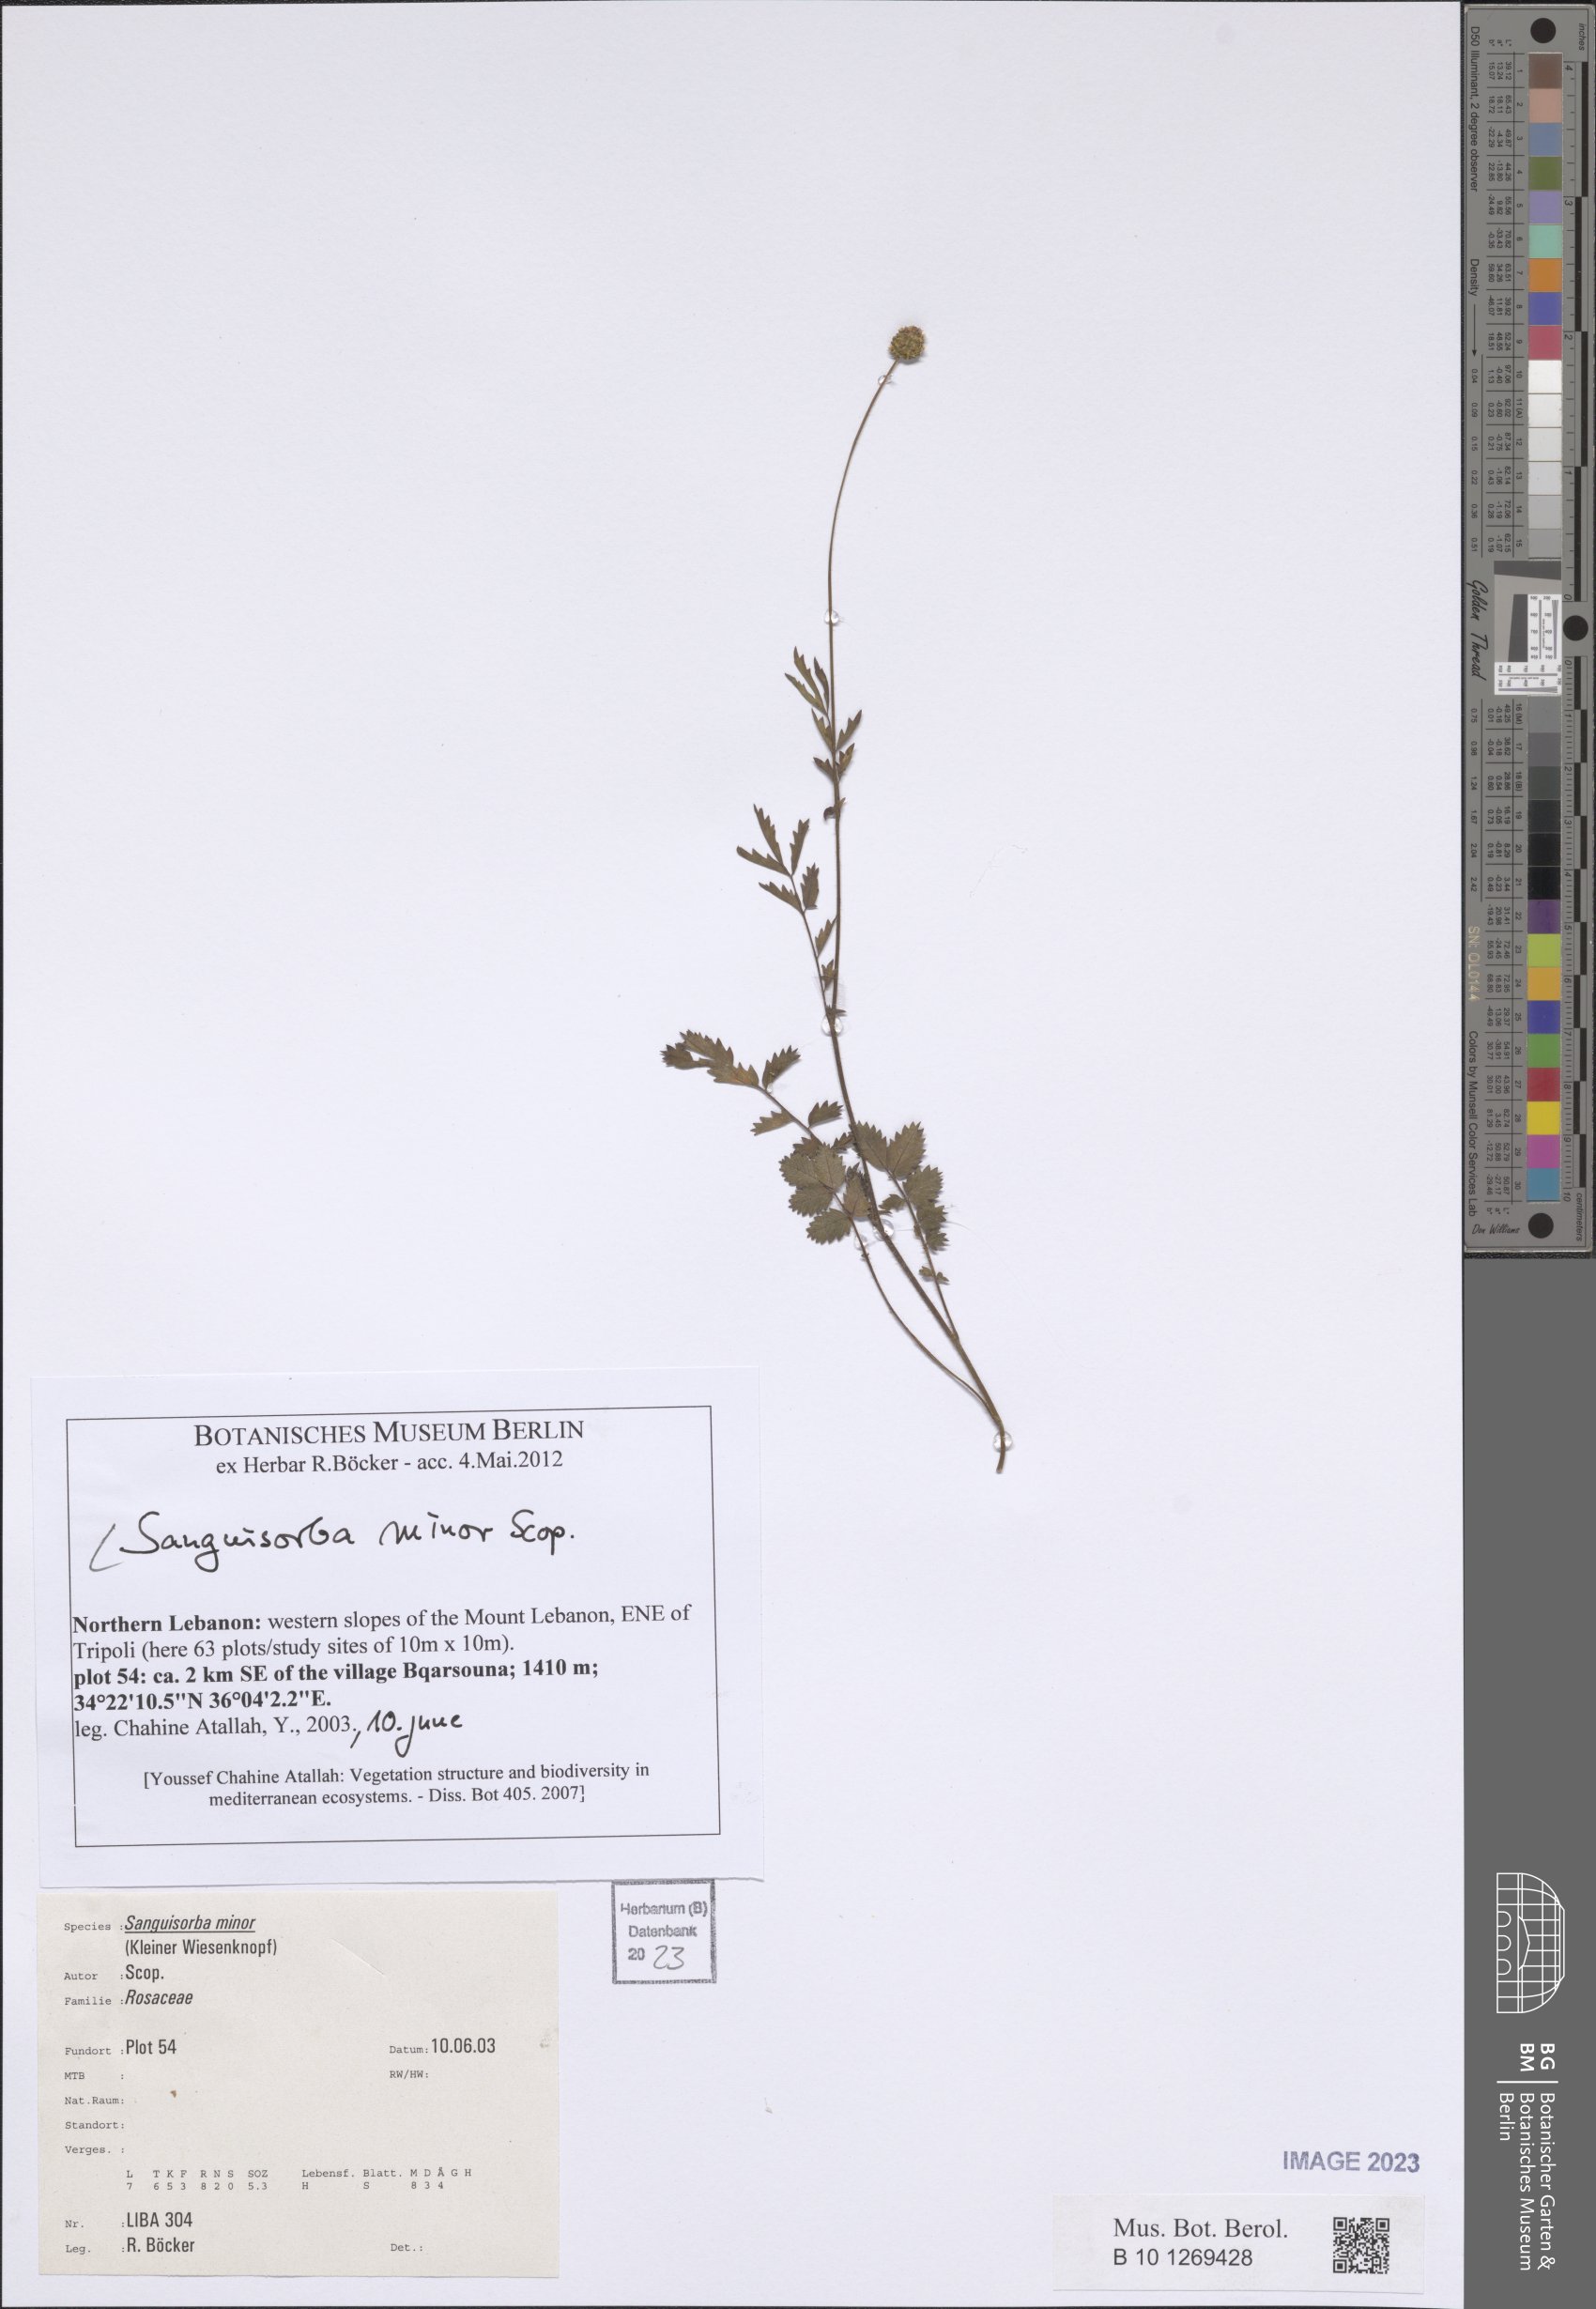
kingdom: Plantae
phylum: Tracheophyta
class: Magnoliopsida
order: Rosales
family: Rosaceae
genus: Poterium
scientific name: Poterium sanguisorba
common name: Salad burnet
